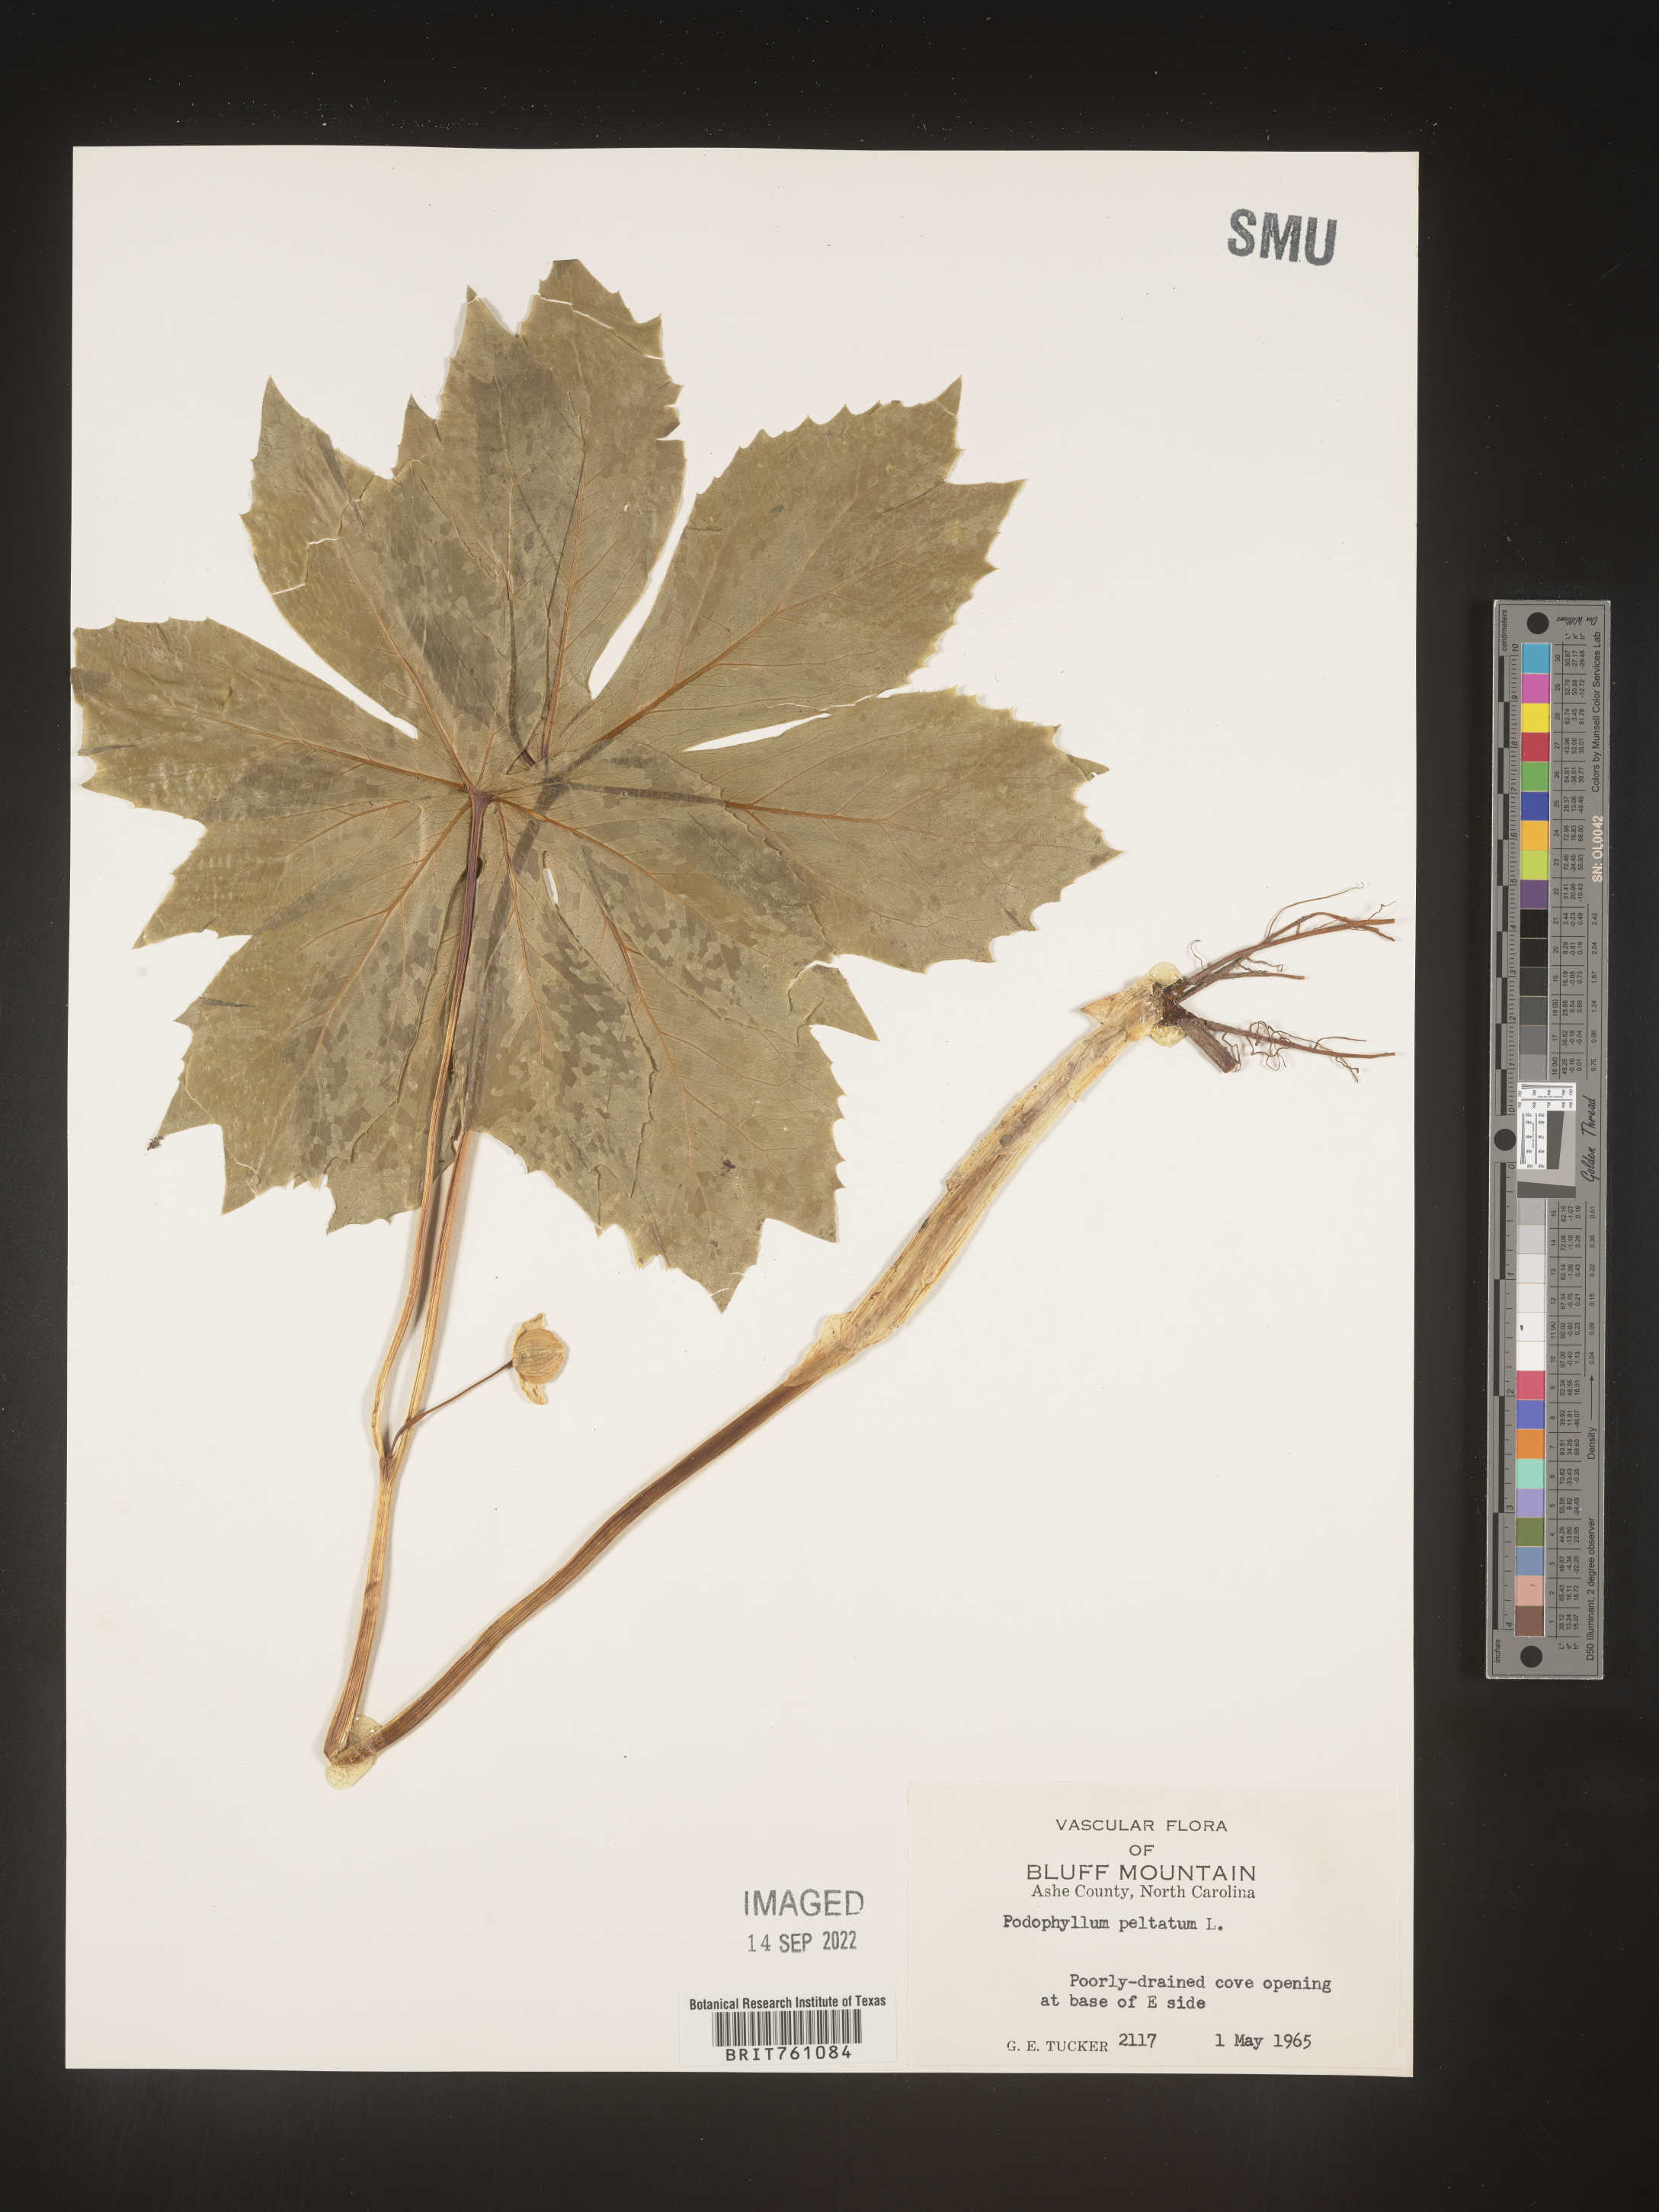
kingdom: Plantae
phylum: Tracheophyta
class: Magnoliopsida
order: Ranunculales
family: Berberidaceae
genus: Podophyllum
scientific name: Podophyllum peltatum
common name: Wild mandrake
